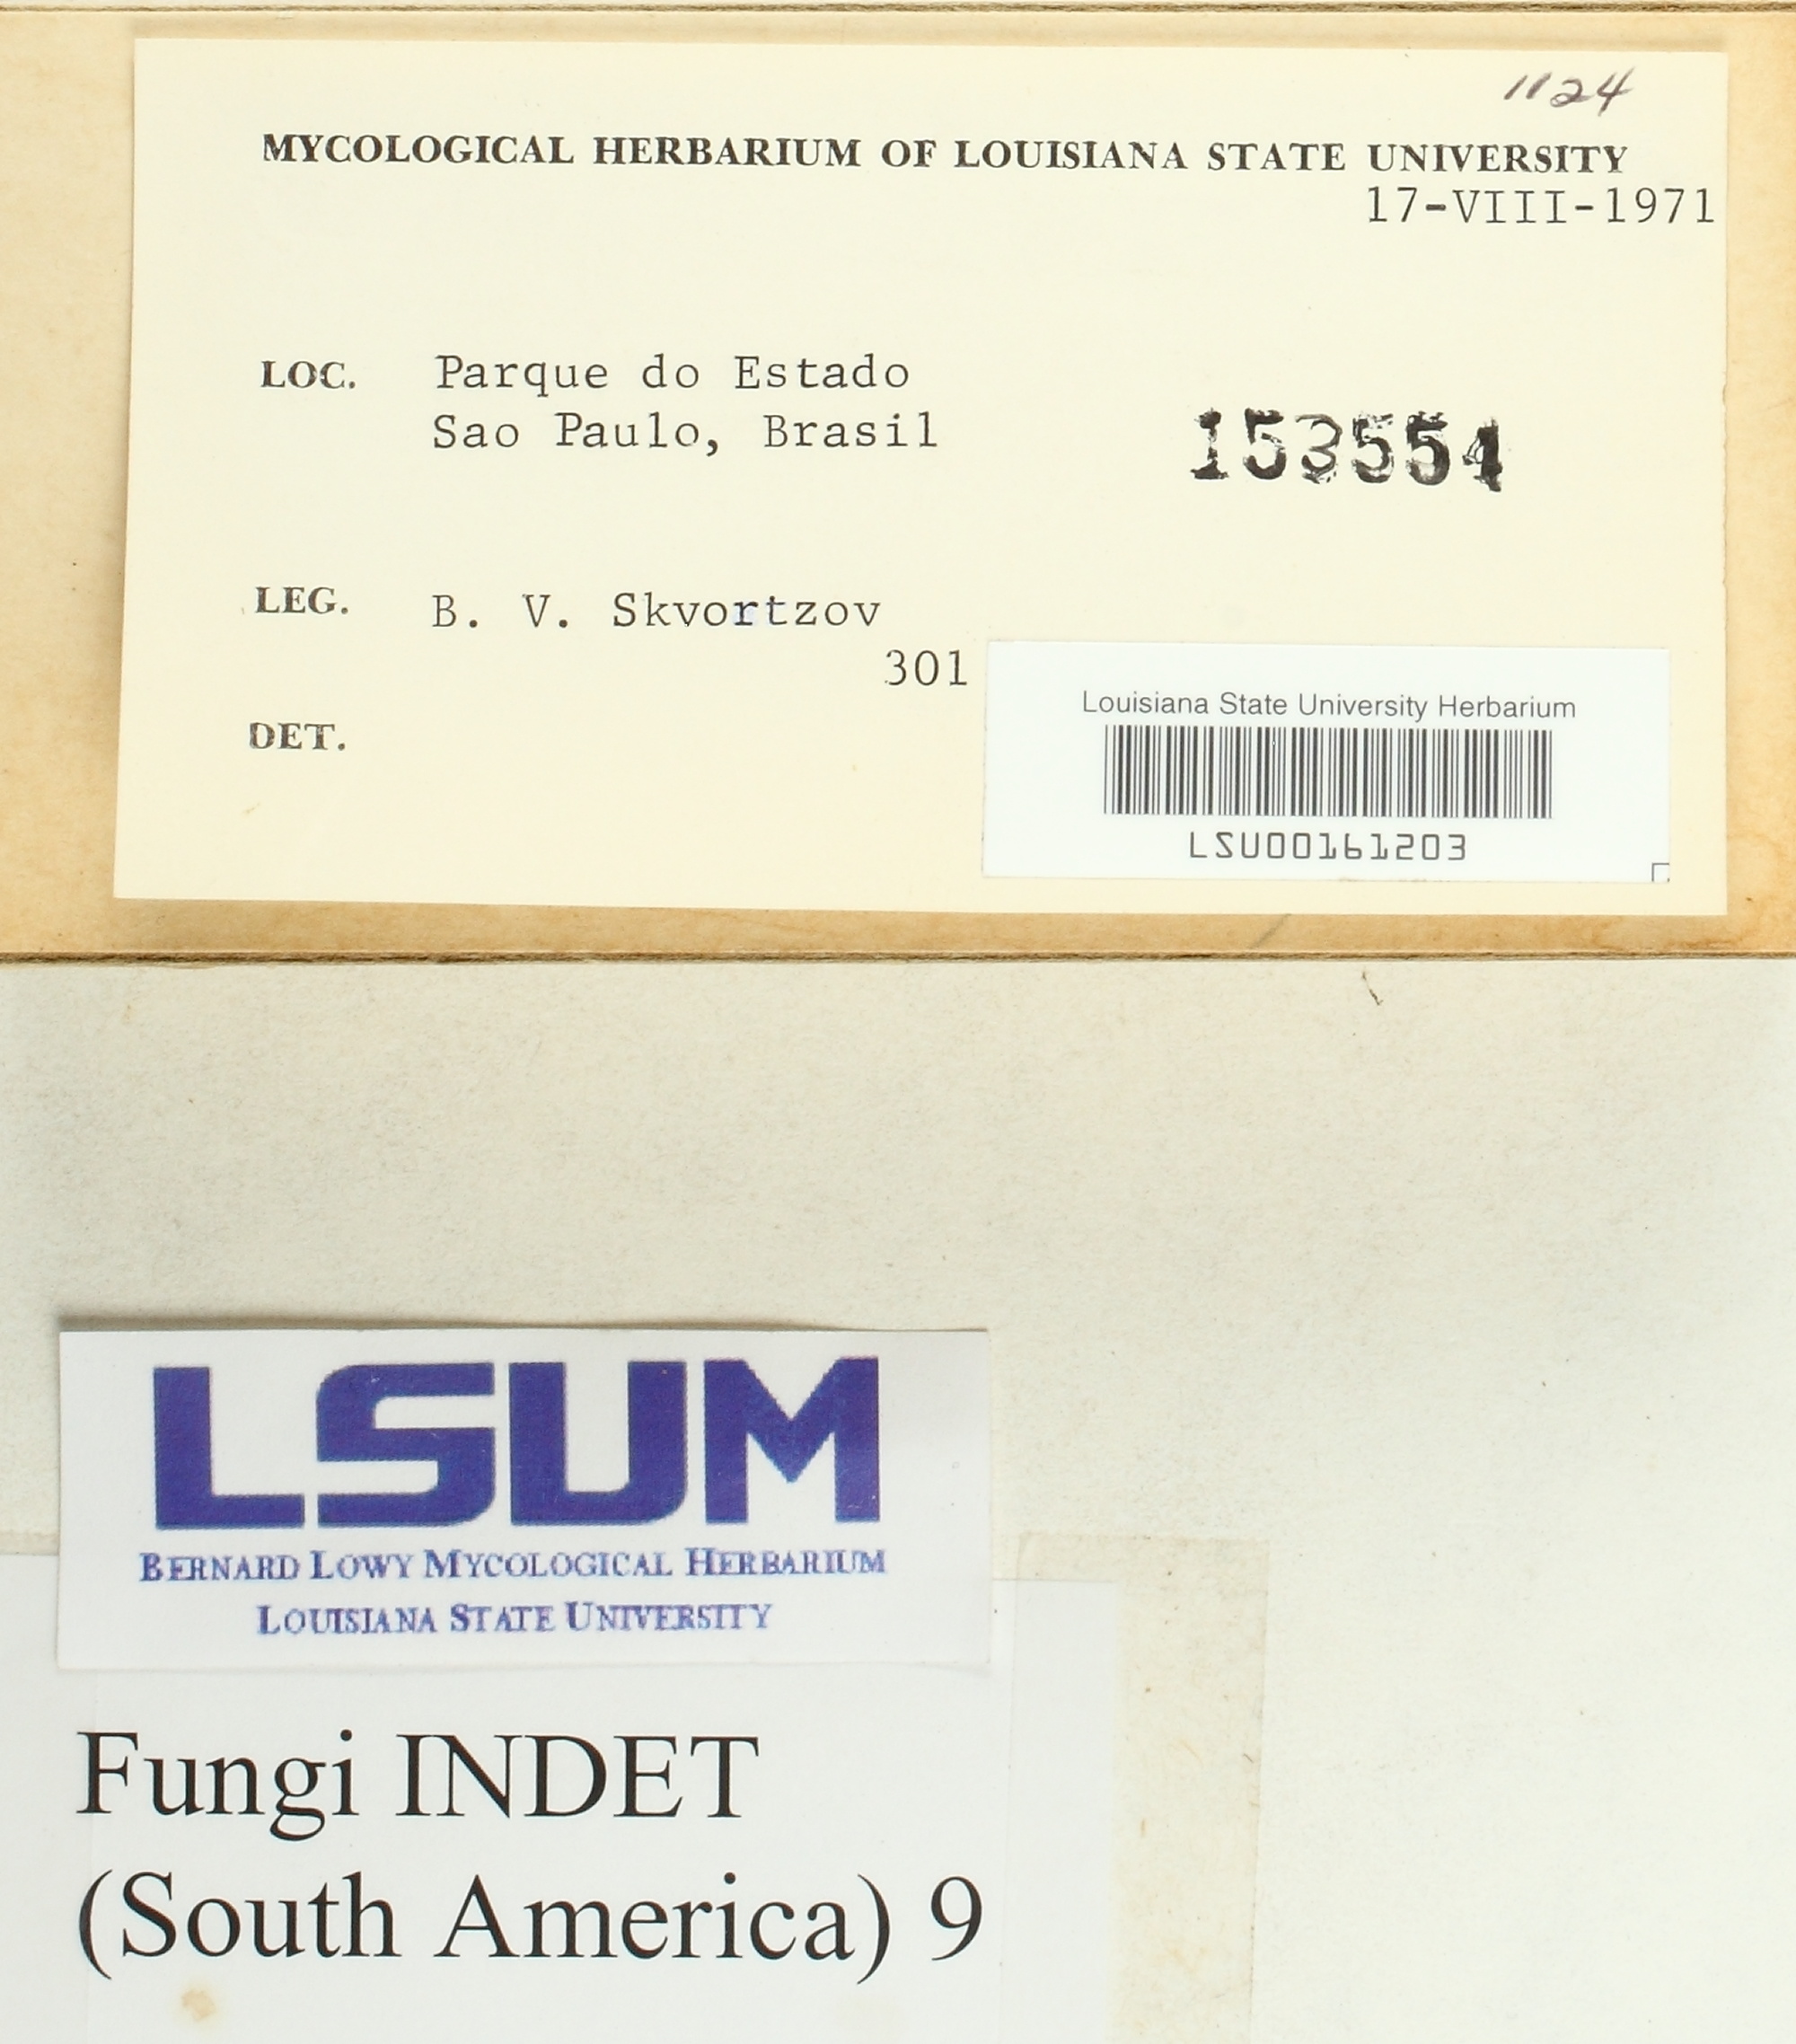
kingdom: Fungi
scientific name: Fungi
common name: Fungi
